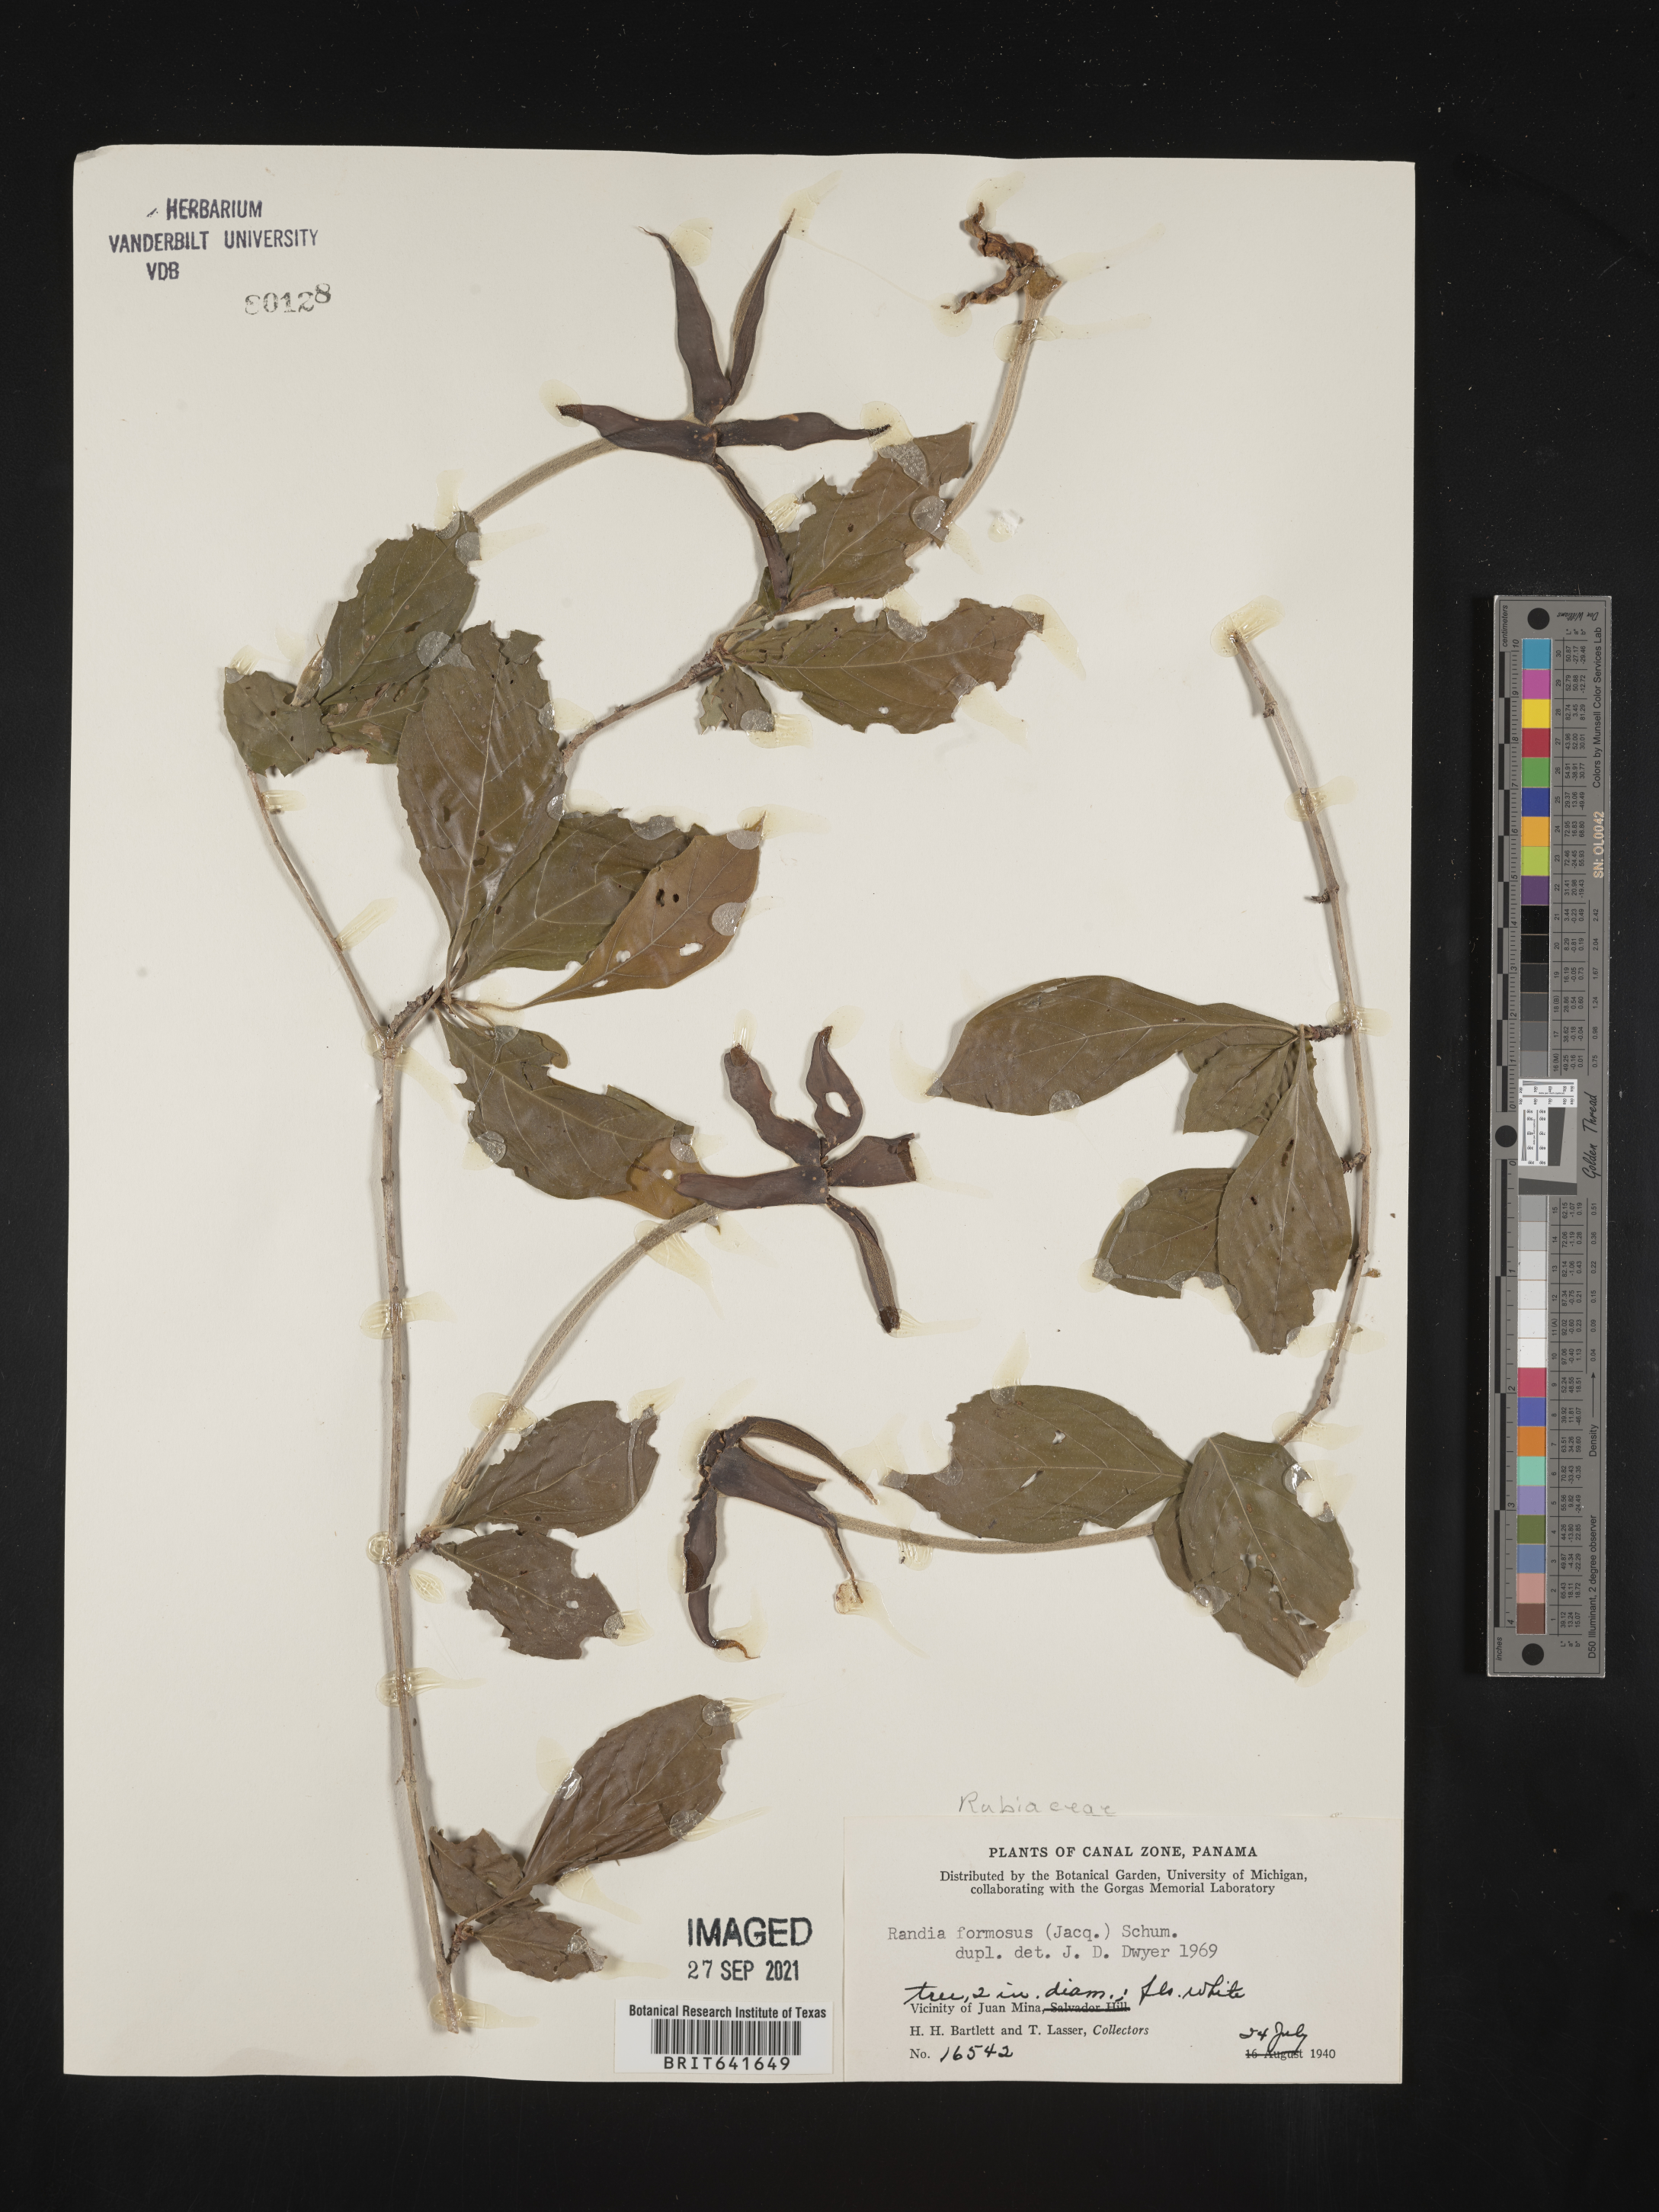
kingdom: Plantae
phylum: Tracheophyta
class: Magnoliopsida
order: Gentianales
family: Rubiaceae
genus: Randia
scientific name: Randia
